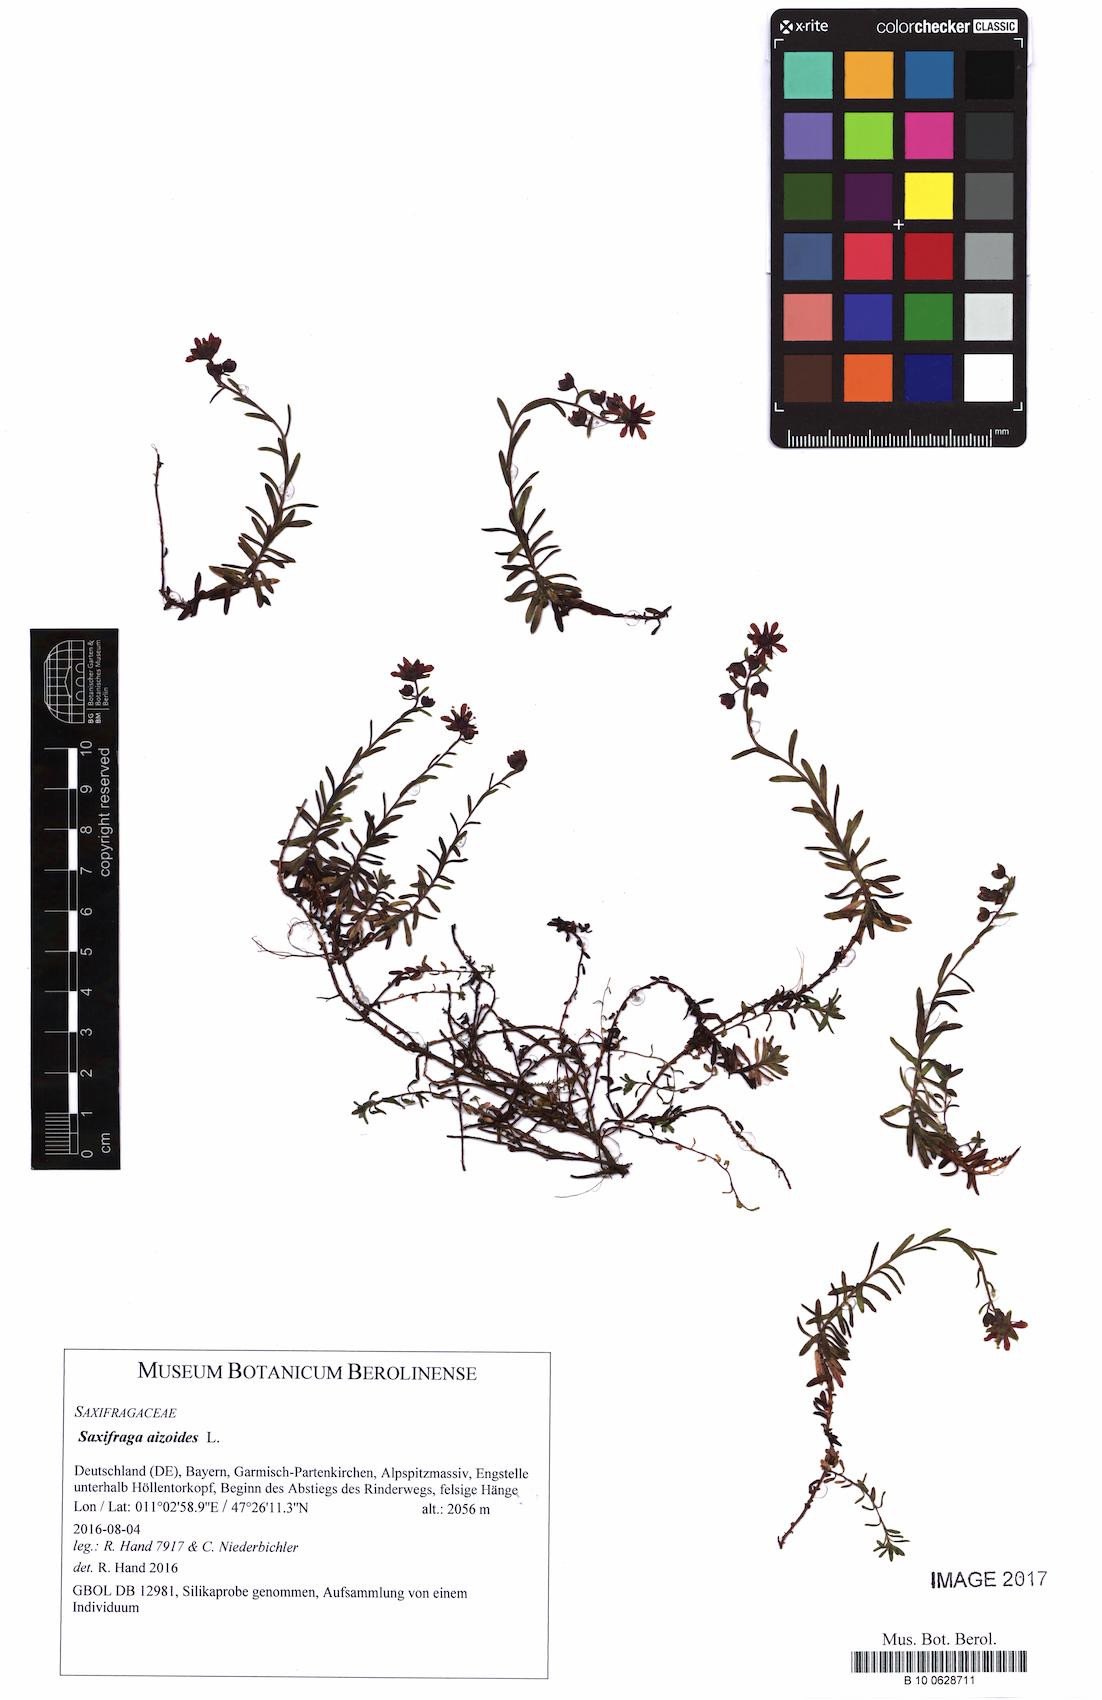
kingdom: Plantae
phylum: Tracheophyta
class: Magnoliopsida
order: Saxifragales
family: Saxifragaceae
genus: Saxifraga
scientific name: Saxifraga aizoides
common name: Yellow mountain saxifrage
